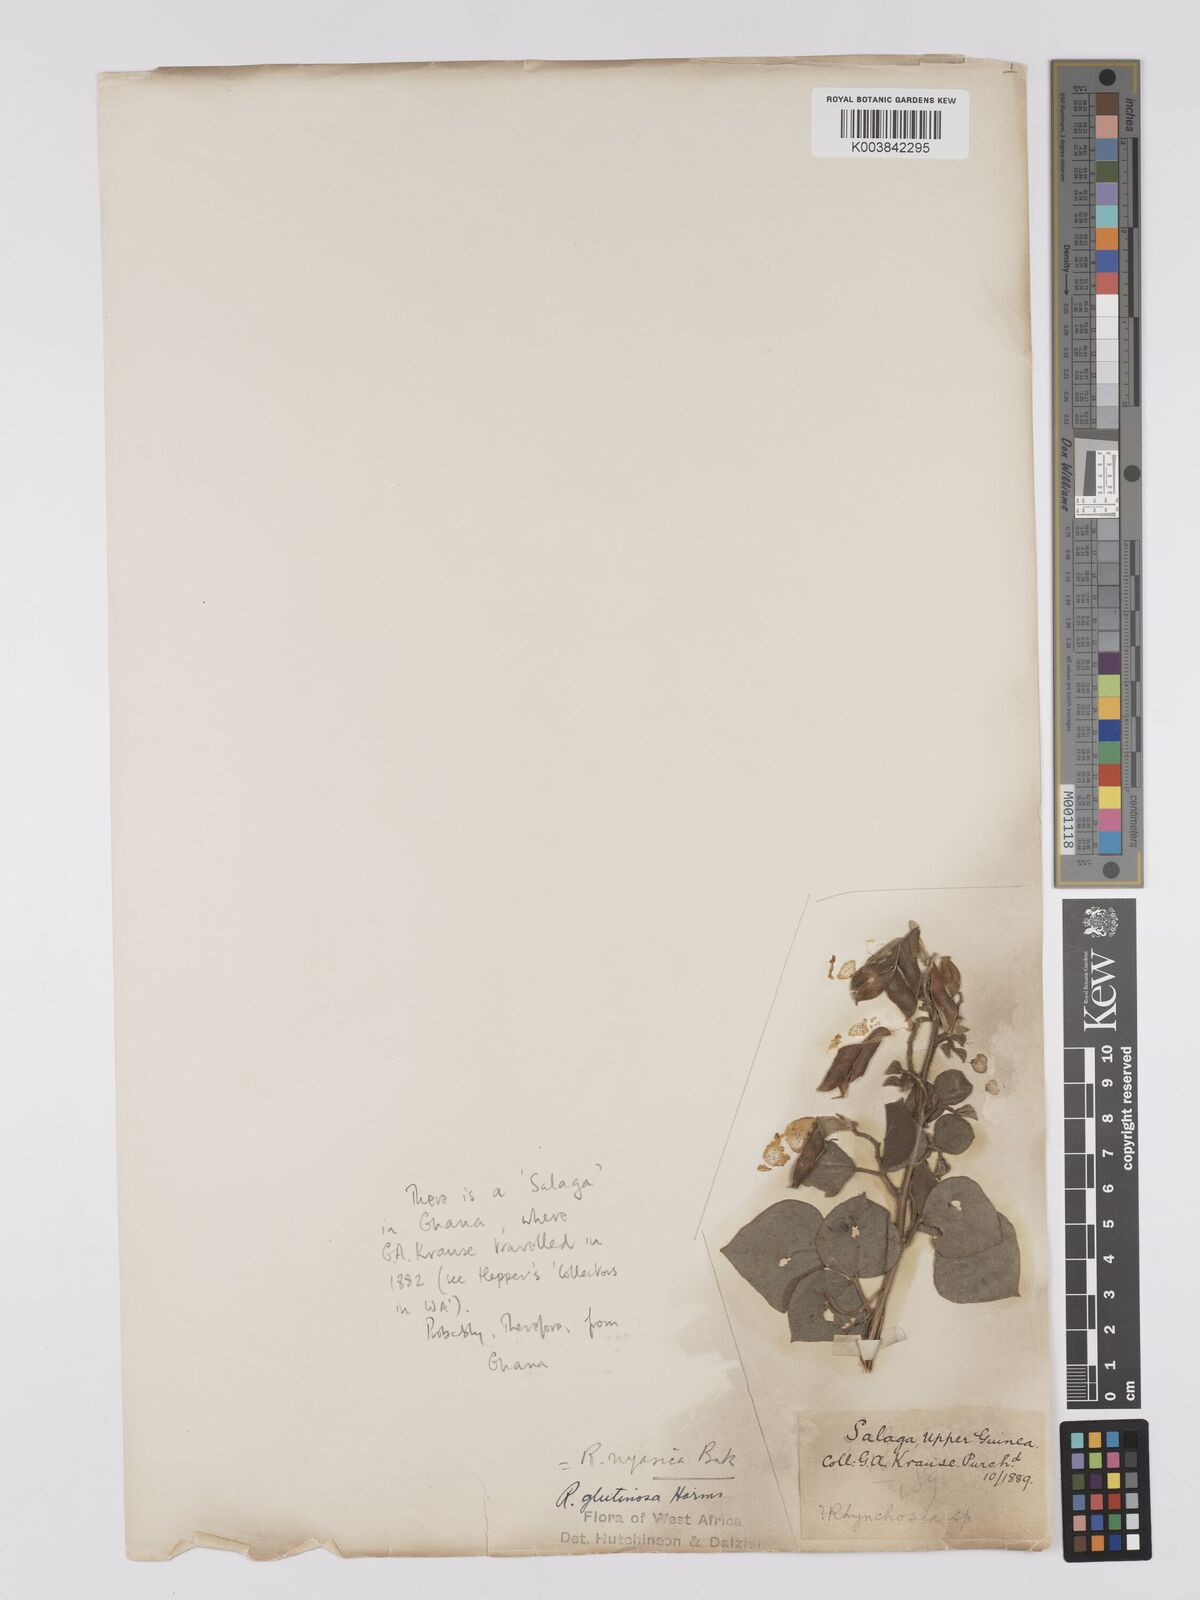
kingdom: Plantae
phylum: Tracheophyta
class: Magnoliopsida
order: Fabales
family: Fabaceae
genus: Rhynchosia
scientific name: Rhynchosia nyasica
